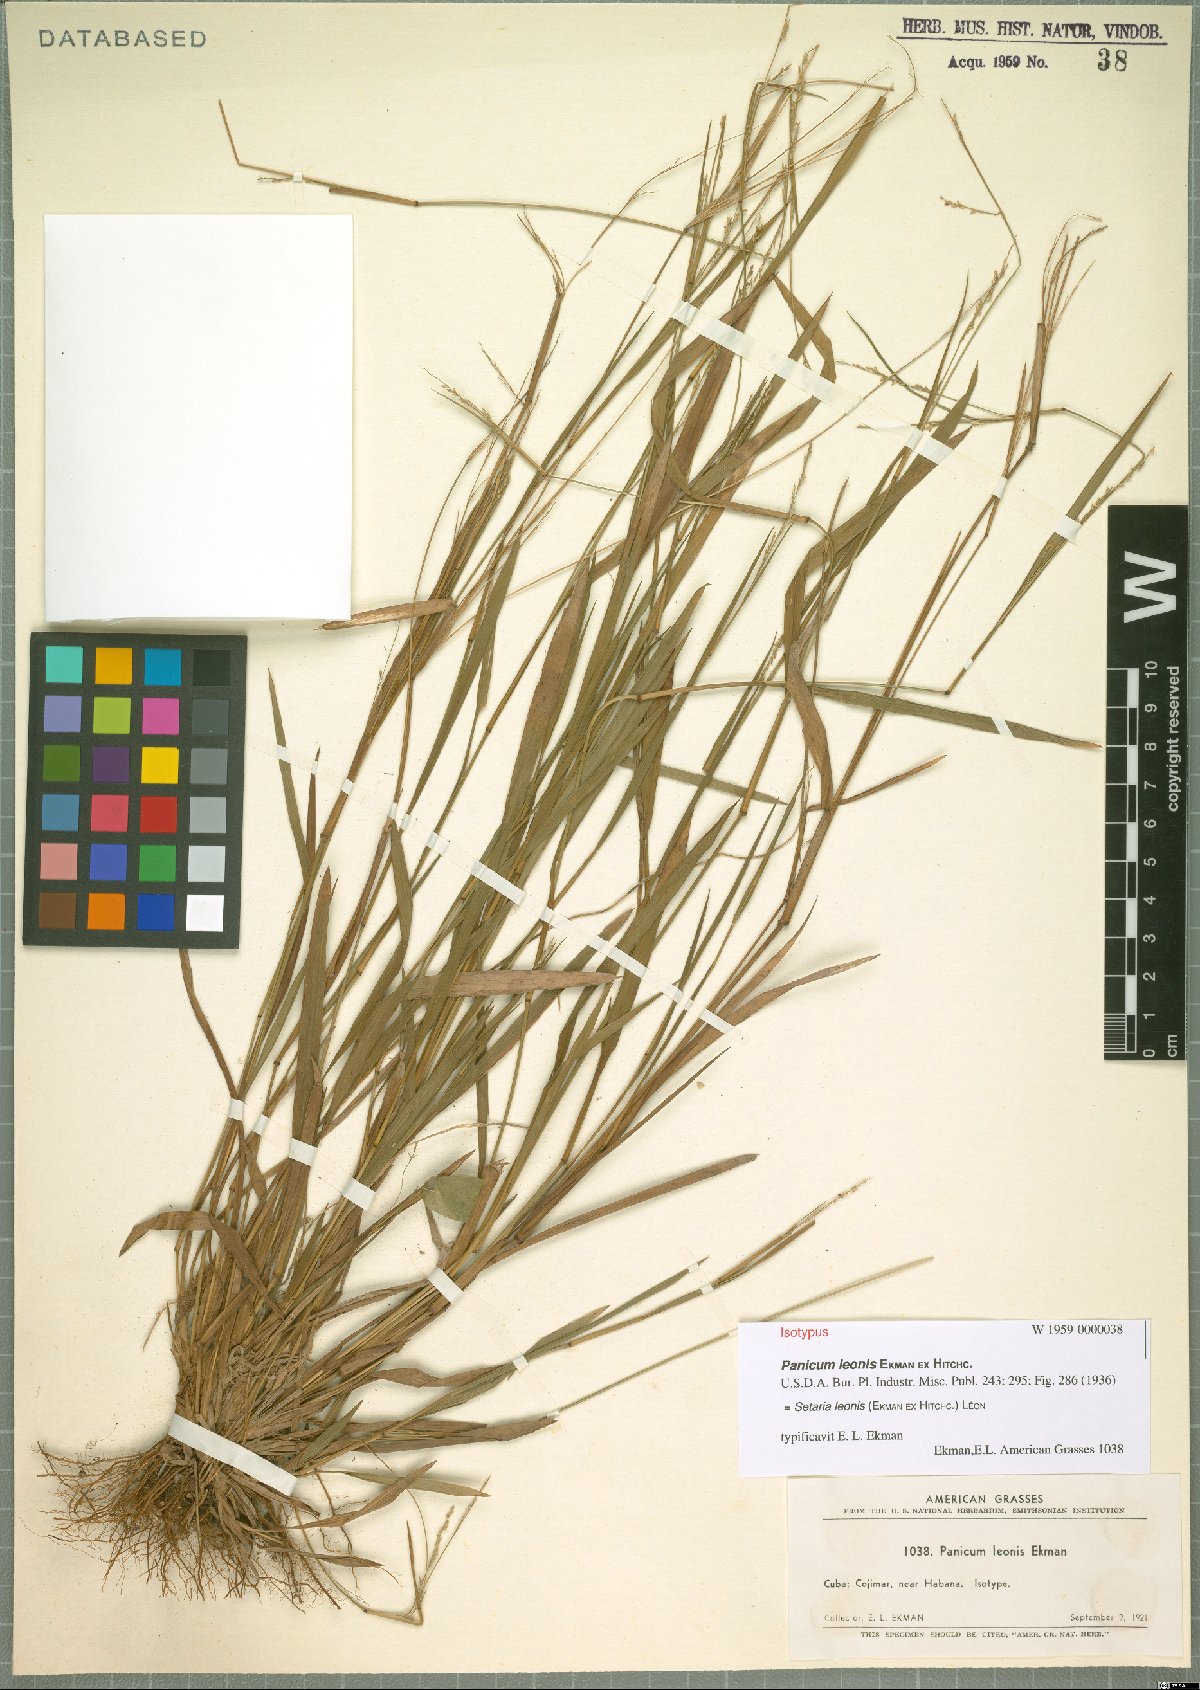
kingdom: Plantae
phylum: Tracheophyta
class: Liliopsida
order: Poales
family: Poaceae
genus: Setaria
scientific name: Setaria leonis
